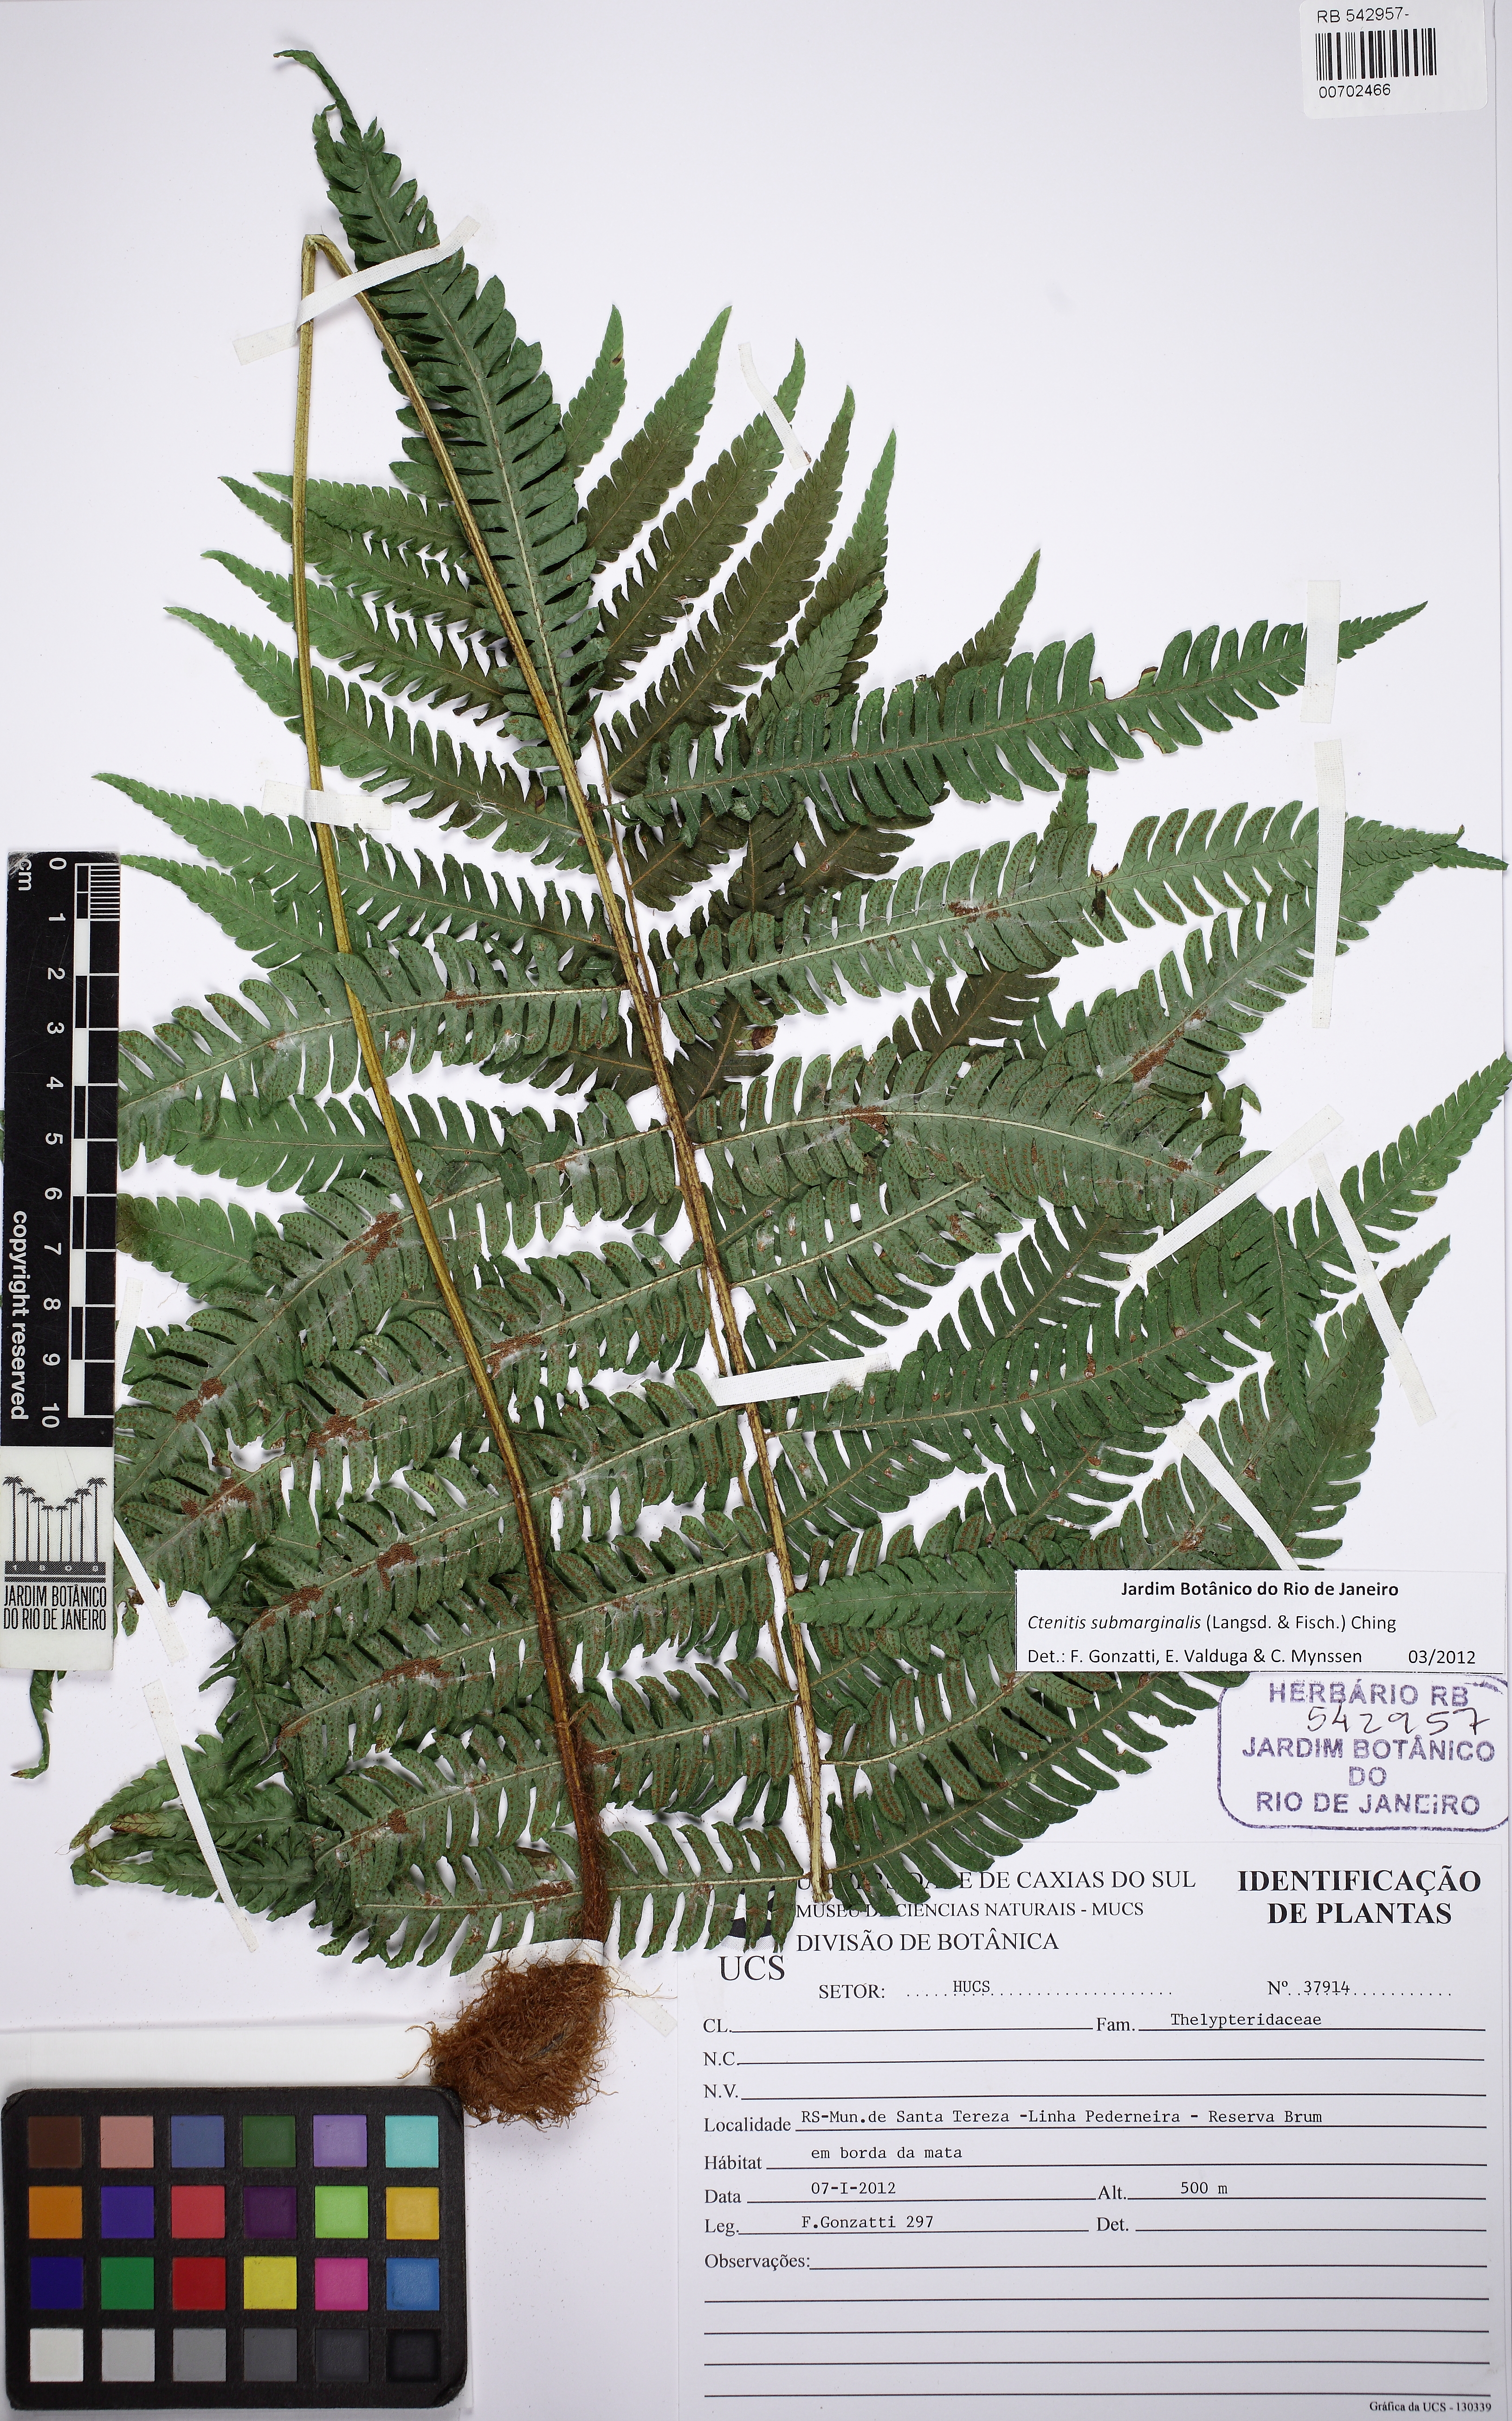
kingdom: Plantae
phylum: Tracheophyta
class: Polypodiopsida
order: Polypodiales
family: Dryopteridaceae
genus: Ctenitis
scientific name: Ctenitis submarginalis
